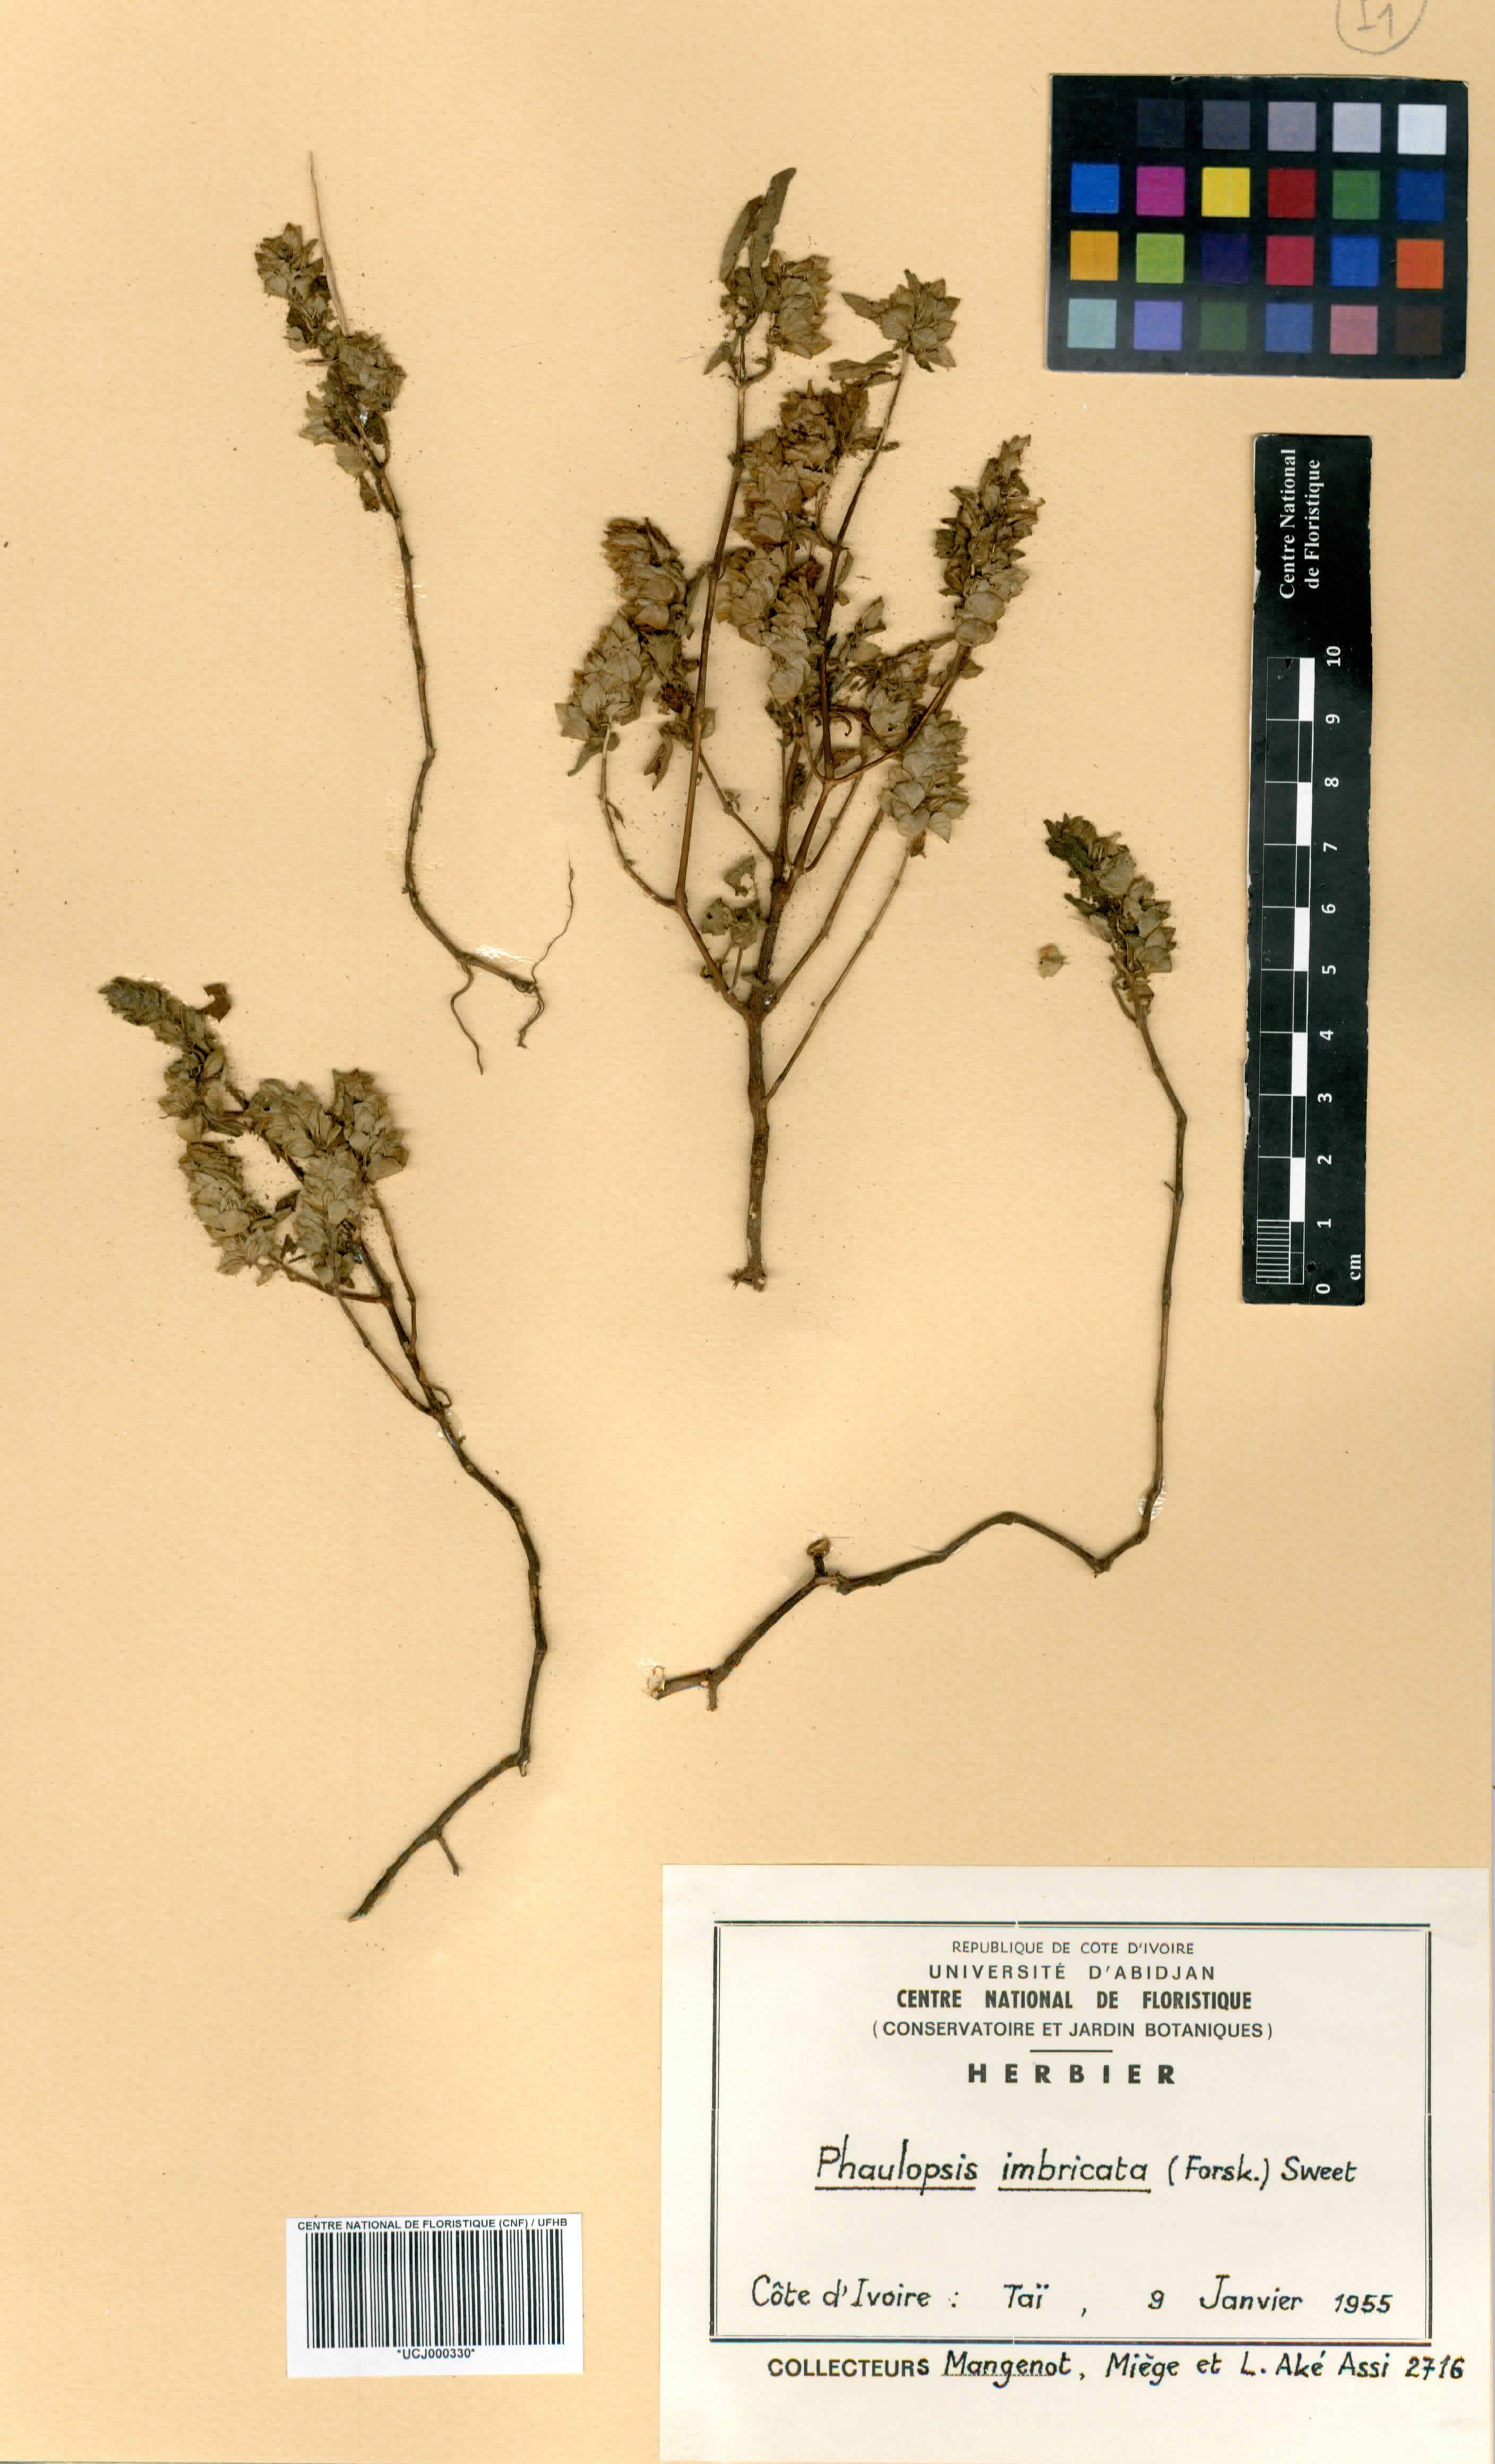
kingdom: Plantae
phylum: Tracheophyta
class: Magnoliopsida
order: Lamiales
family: Acanthaceae
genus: Phaulopsis
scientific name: Phaulopsis imbricata
